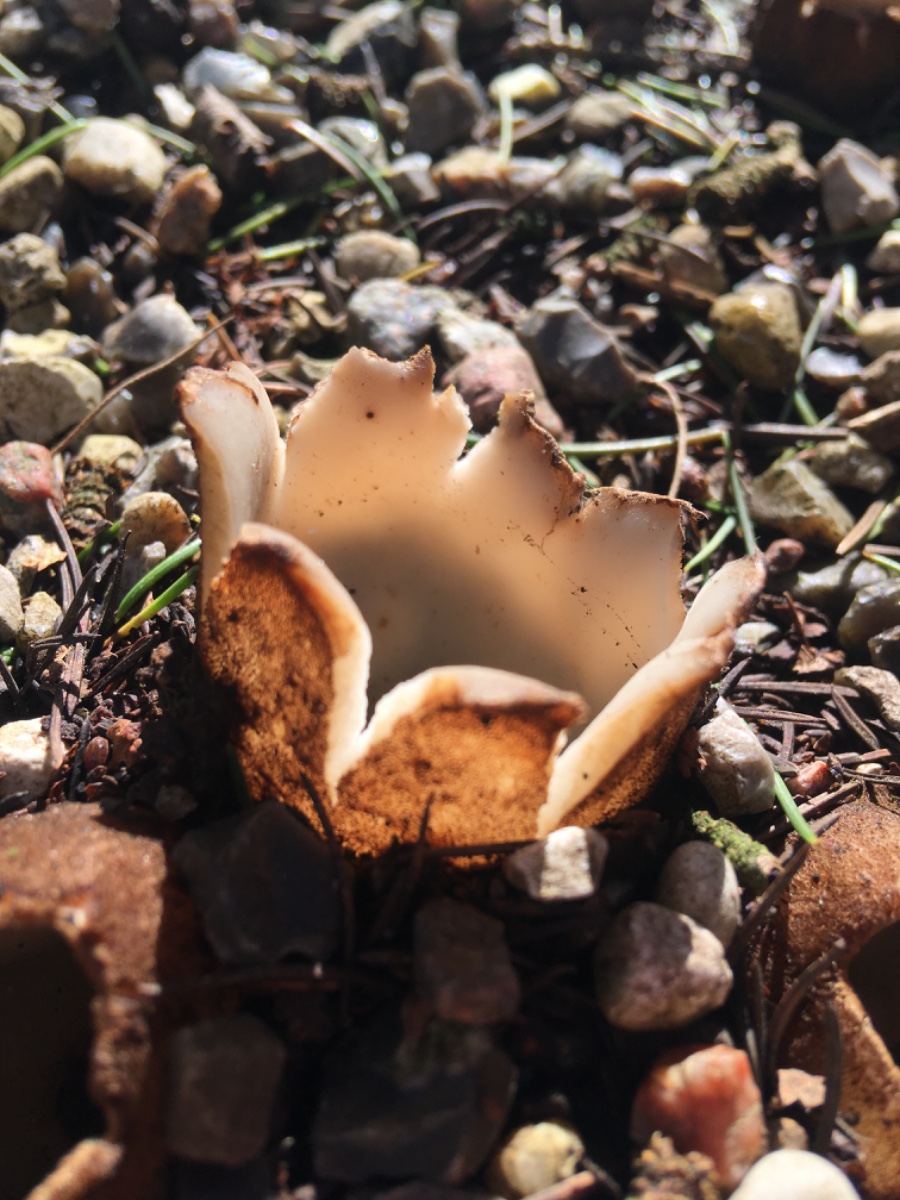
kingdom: Fungi
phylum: Ascomycota
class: Pezizomycetes
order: Pezizales
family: Pyronemataceae
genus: Geopora
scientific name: Geopora sumneriana
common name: vår-jordbæger
